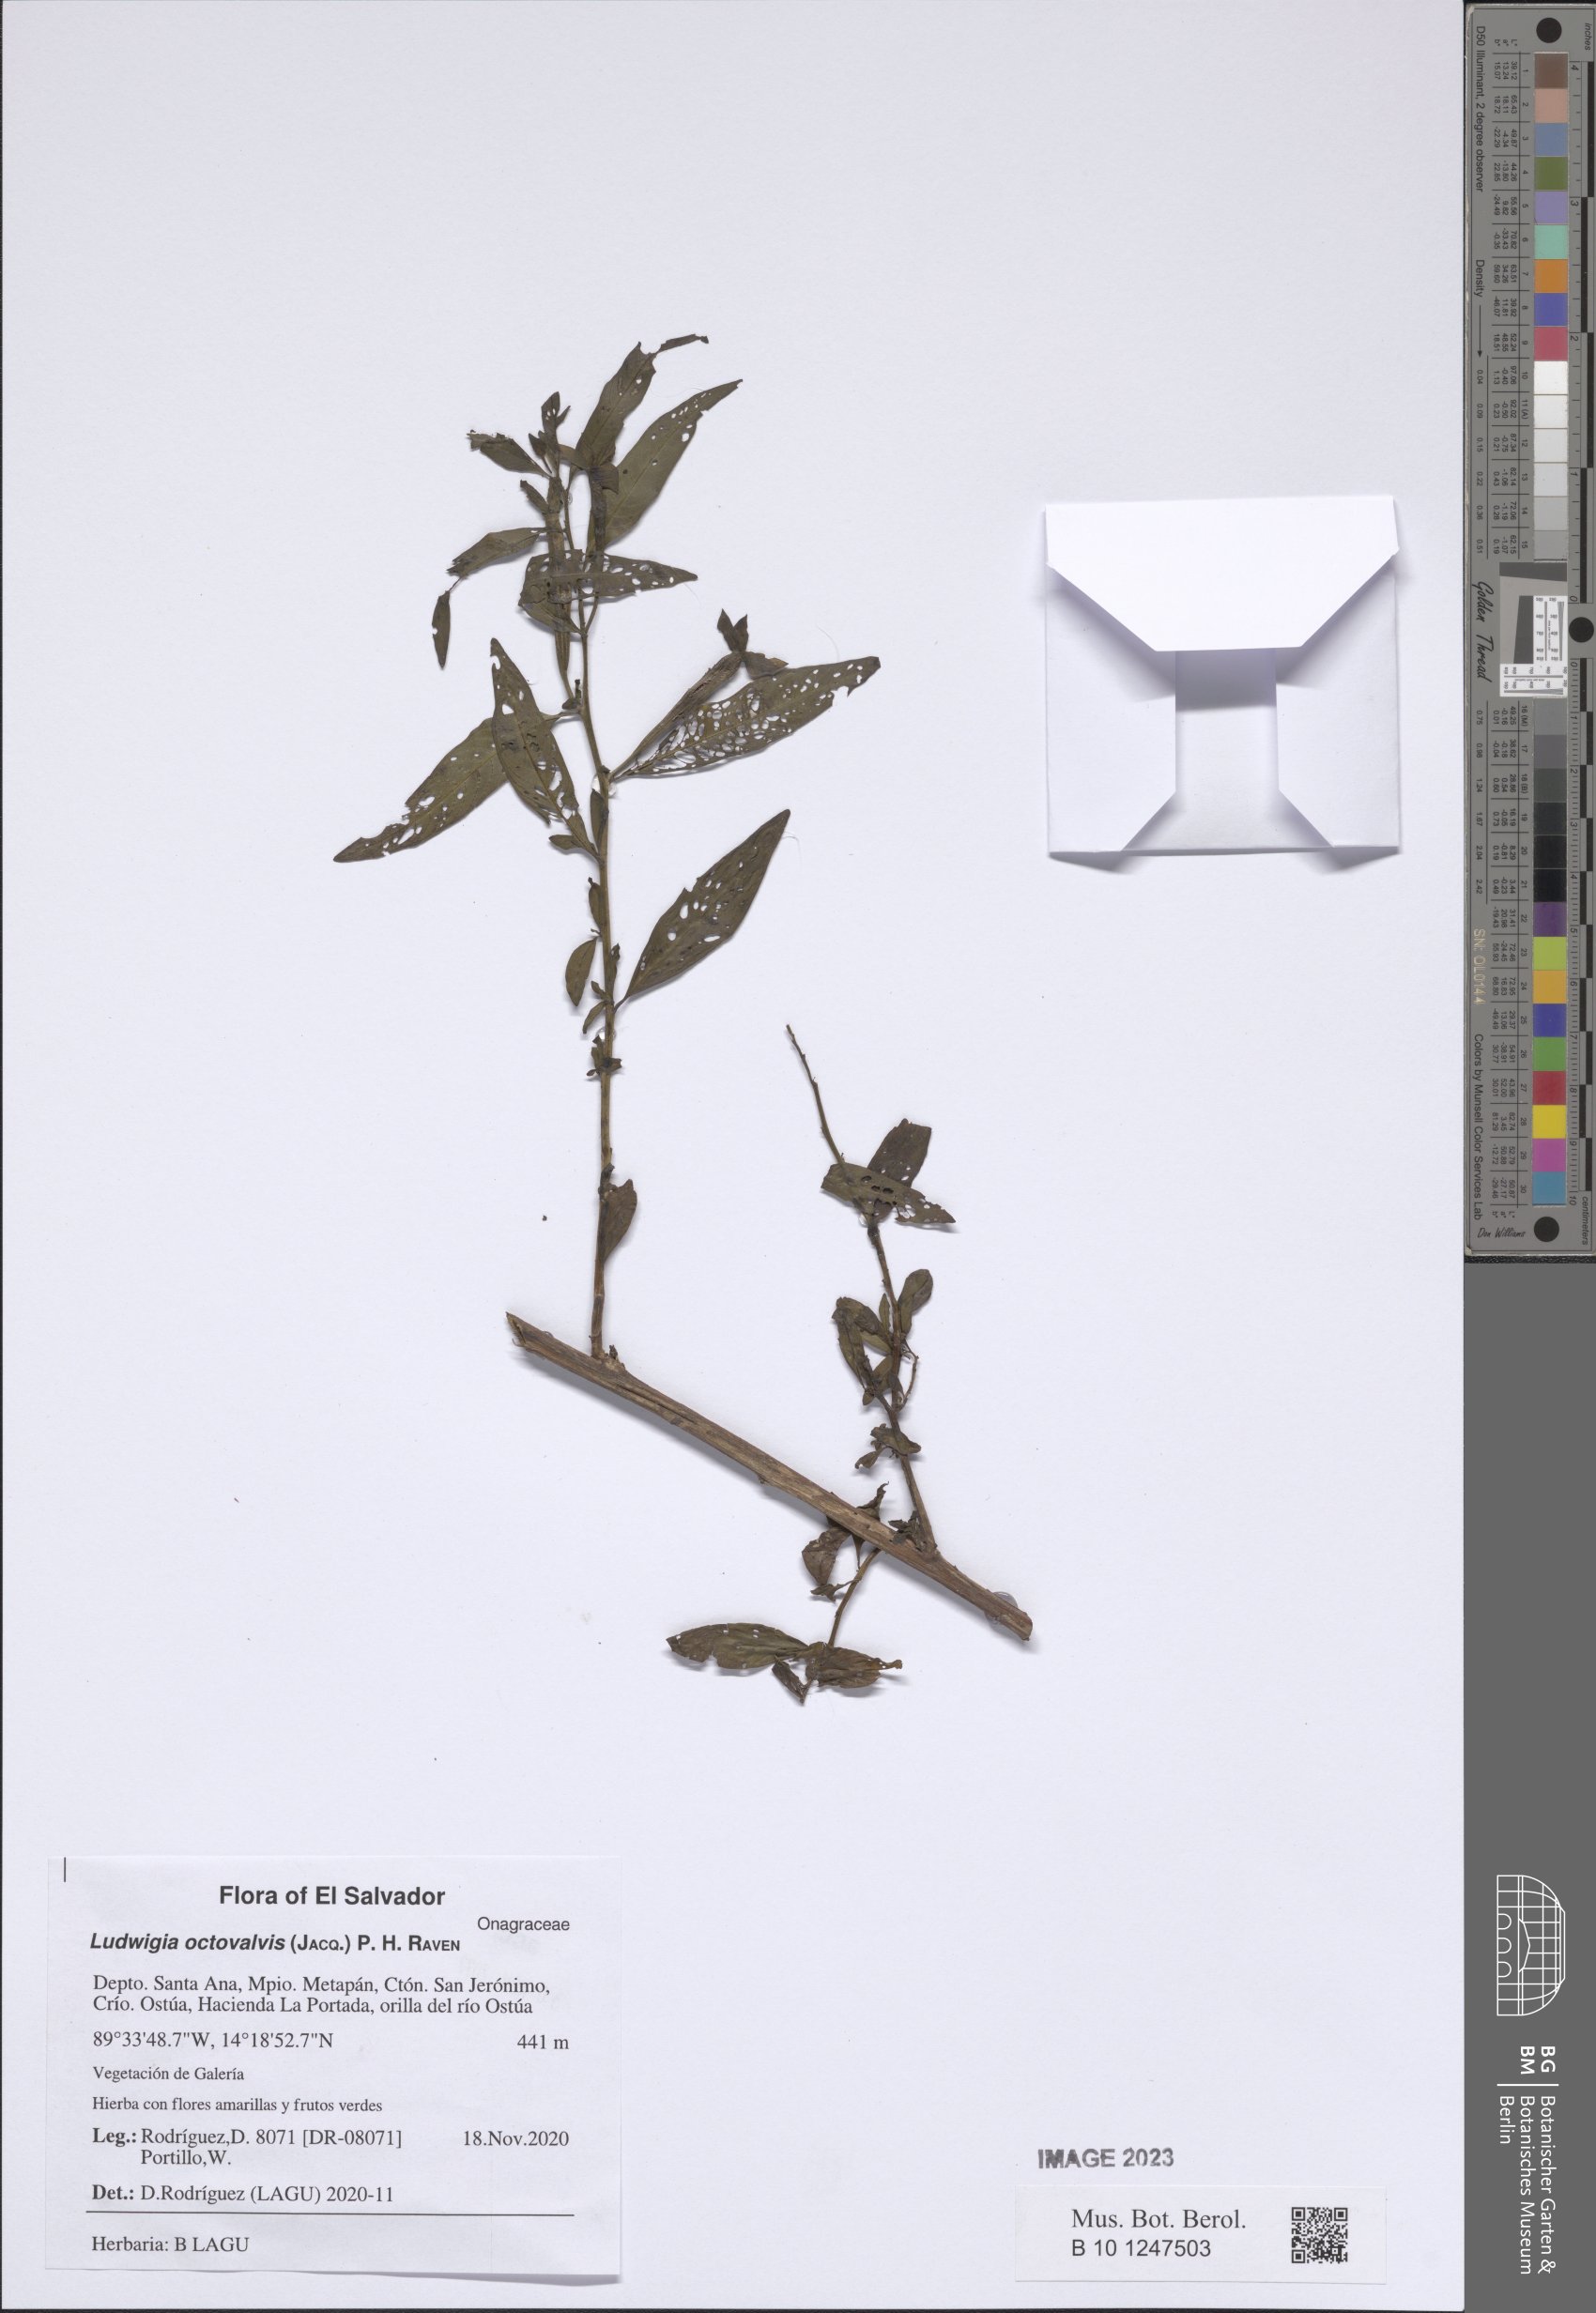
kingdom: Plantae
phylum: Tracheophyta
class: Magnoliopsida
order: Myrtales
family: Onagraceae
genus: Ludwigia
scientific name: Ludwigia octovalvis
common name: Water-primrose
